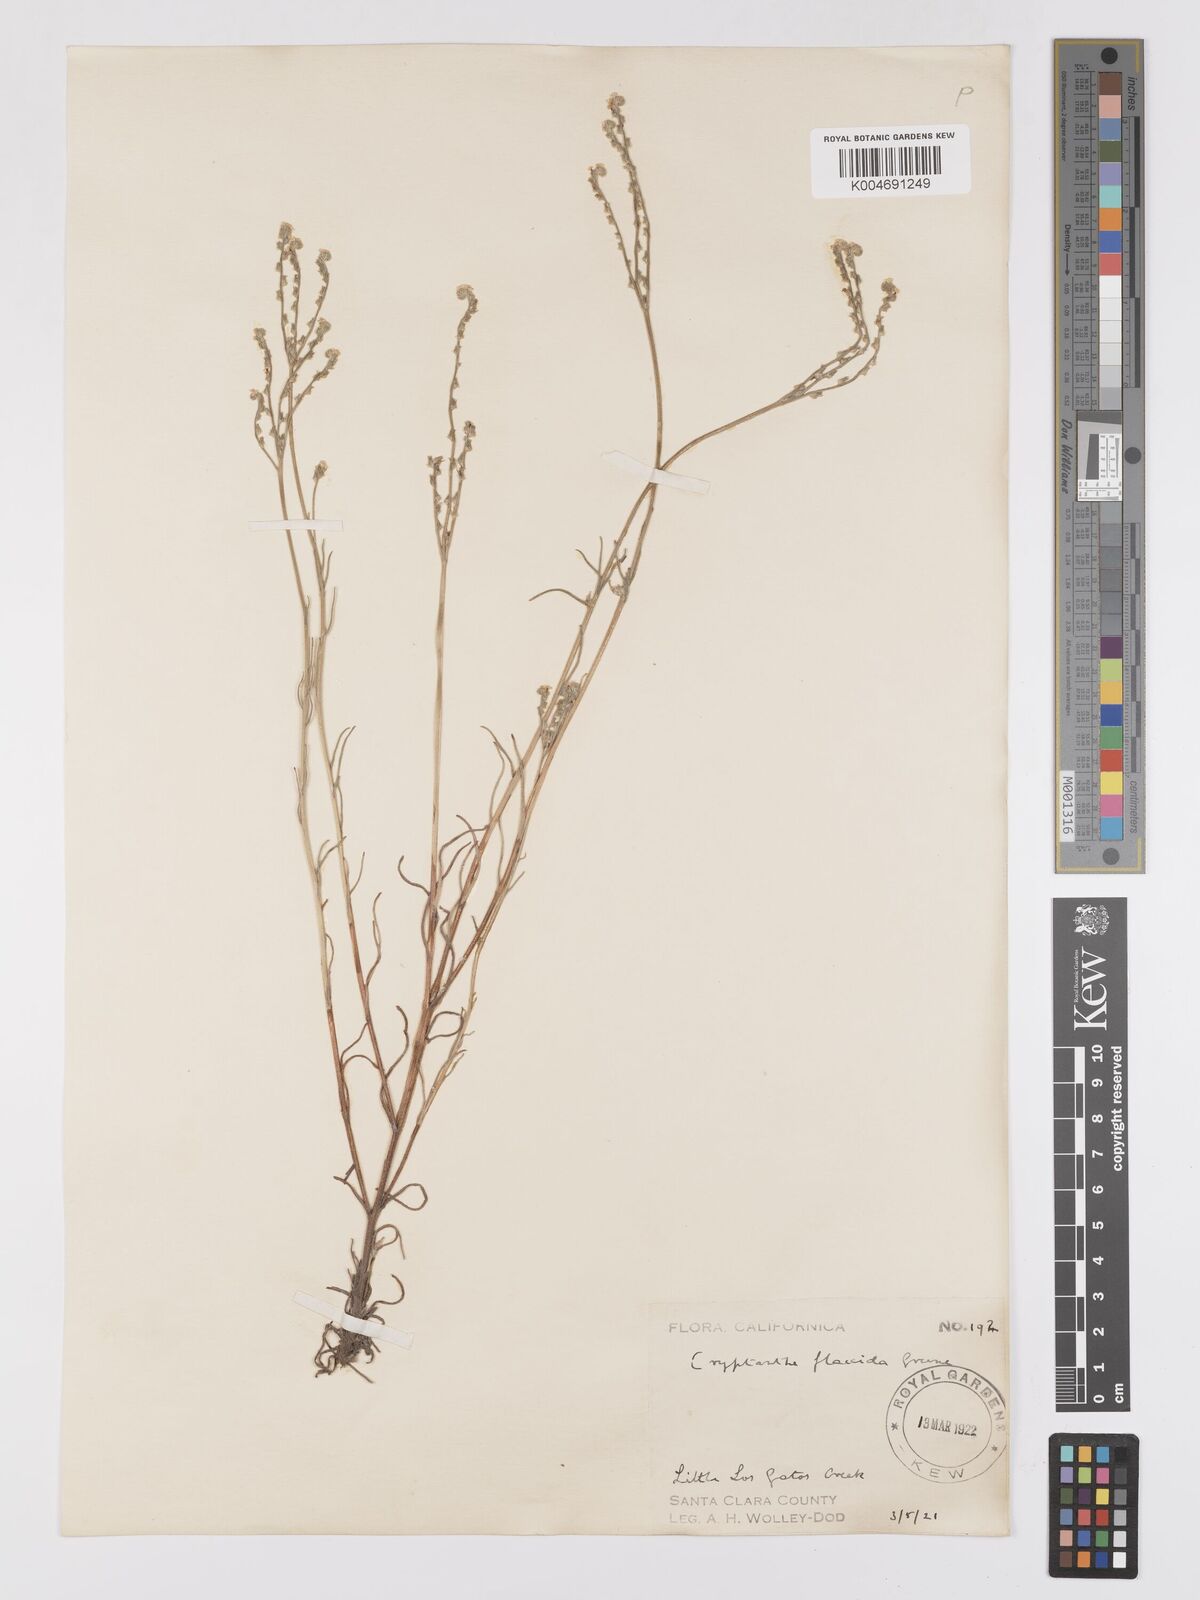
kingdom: Plantae
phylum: Tracheophyta
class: Magnoliopsida
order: Boraginales
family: Boraginaceae
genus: Cryptantha
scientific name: Cryptantha flaccida
